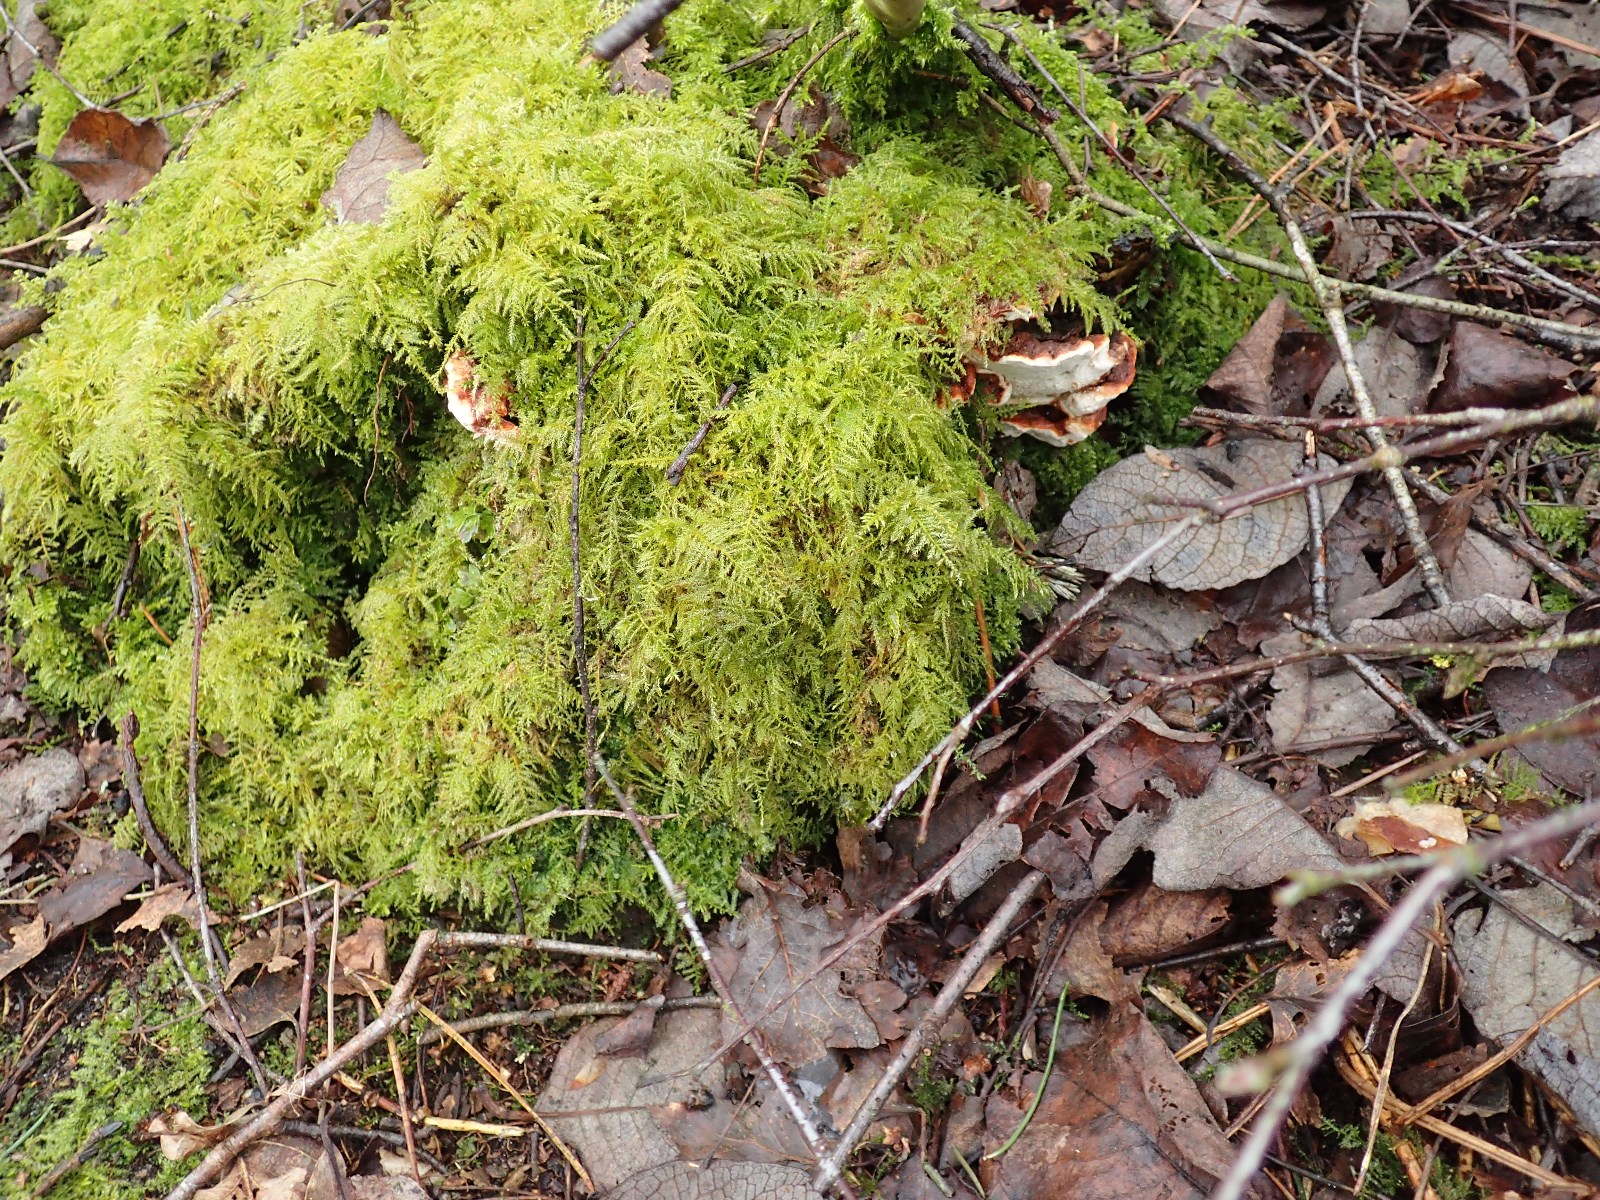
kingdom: Fungi
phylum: Basidiomycota
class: Agaricomycetes
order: Russulales
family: Bondarzewiaceae
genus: Heterobasidion
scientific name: Heterobasidion annosum
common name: almindelig rodfordærver
